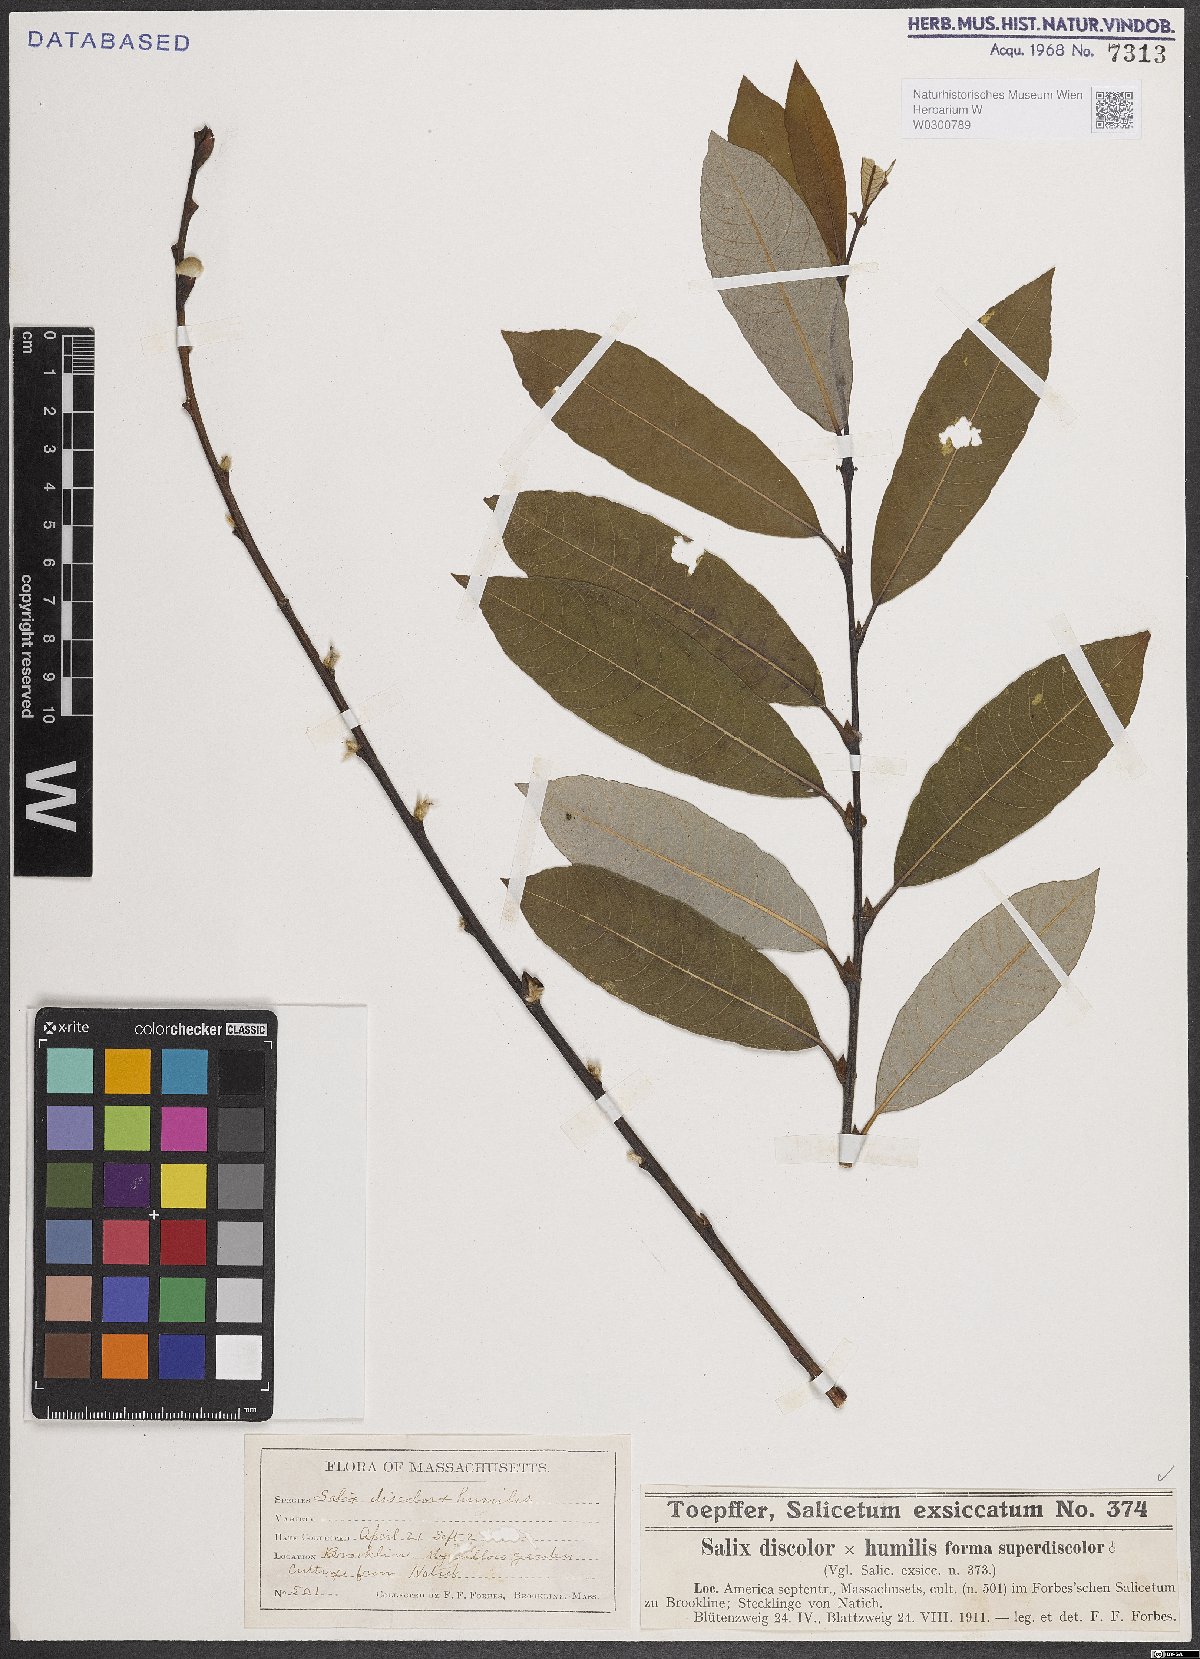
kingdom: Plantae
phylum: Tracheophyta
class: Magnoliopsida
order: Malpighiales
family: Salicaceae
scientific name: Salicaceae
